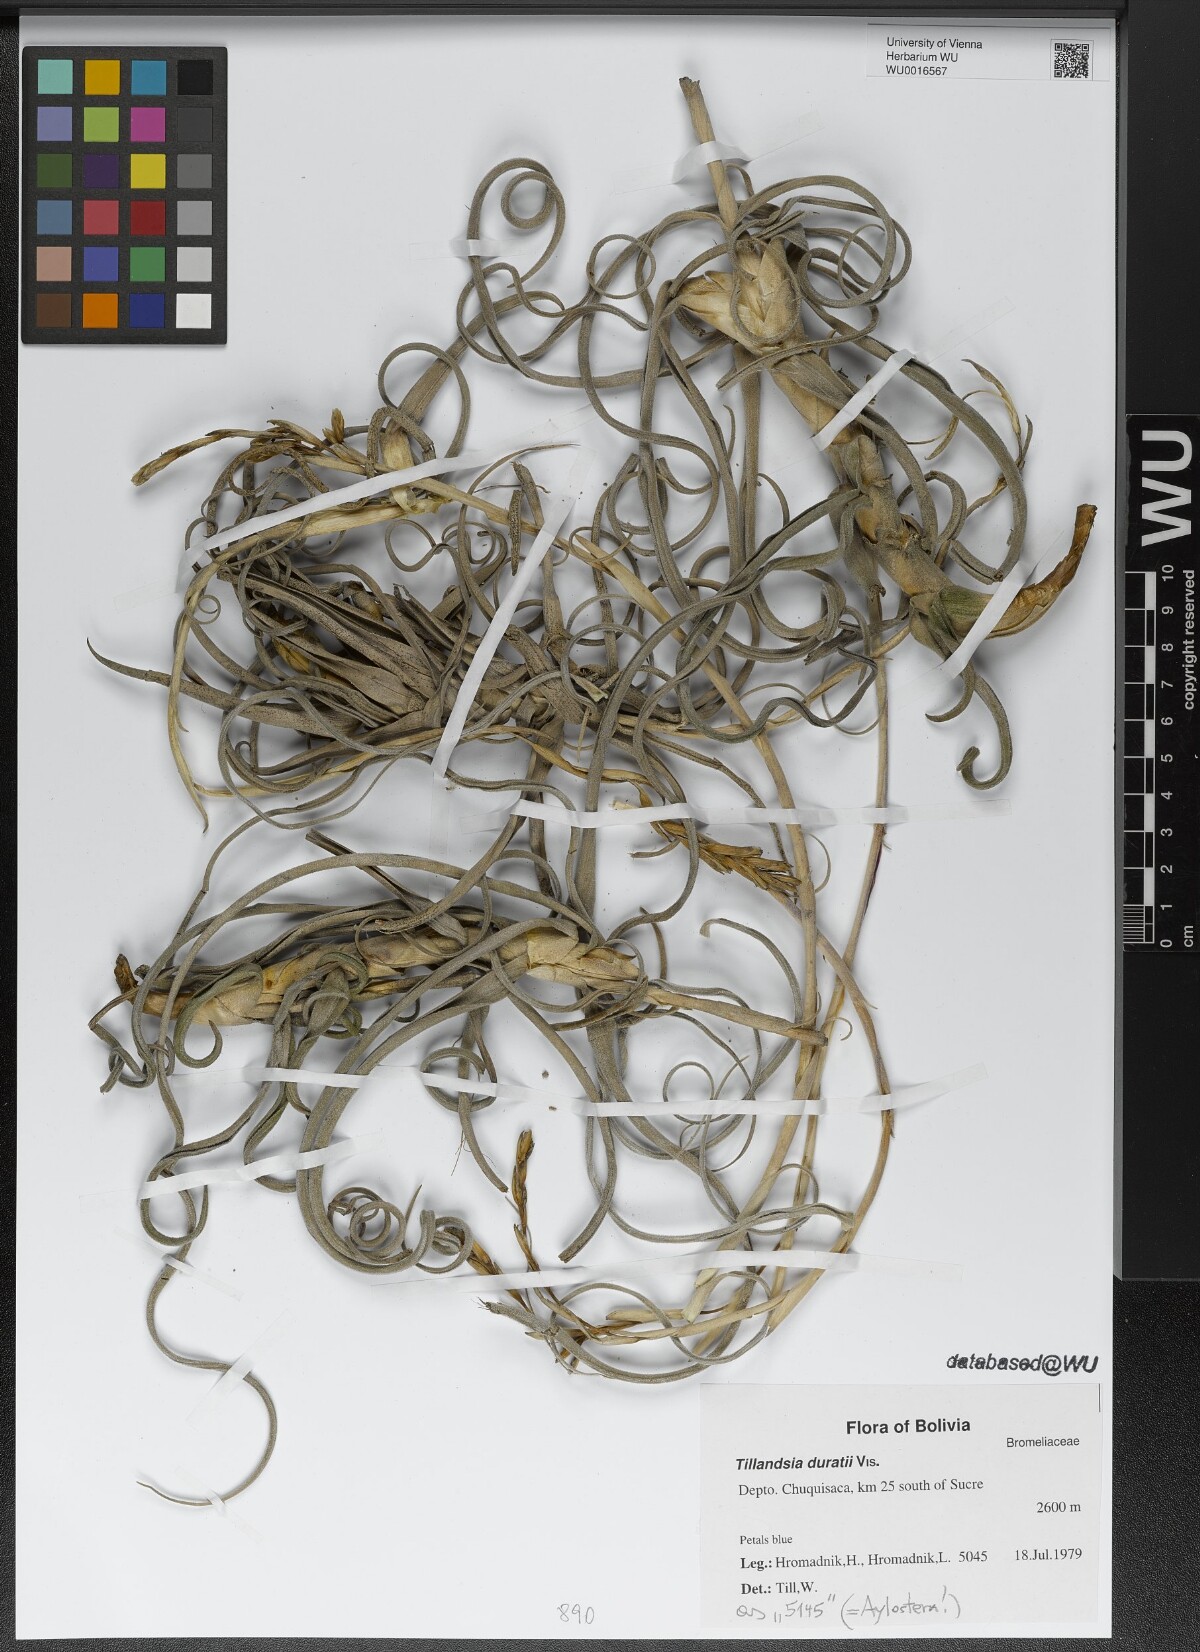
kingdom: Plantae
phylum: Tracheophyta
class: Liliopsida
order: Poales
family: Bromeliaceae
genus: Tillandsia
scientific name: Tillandsia duratii
